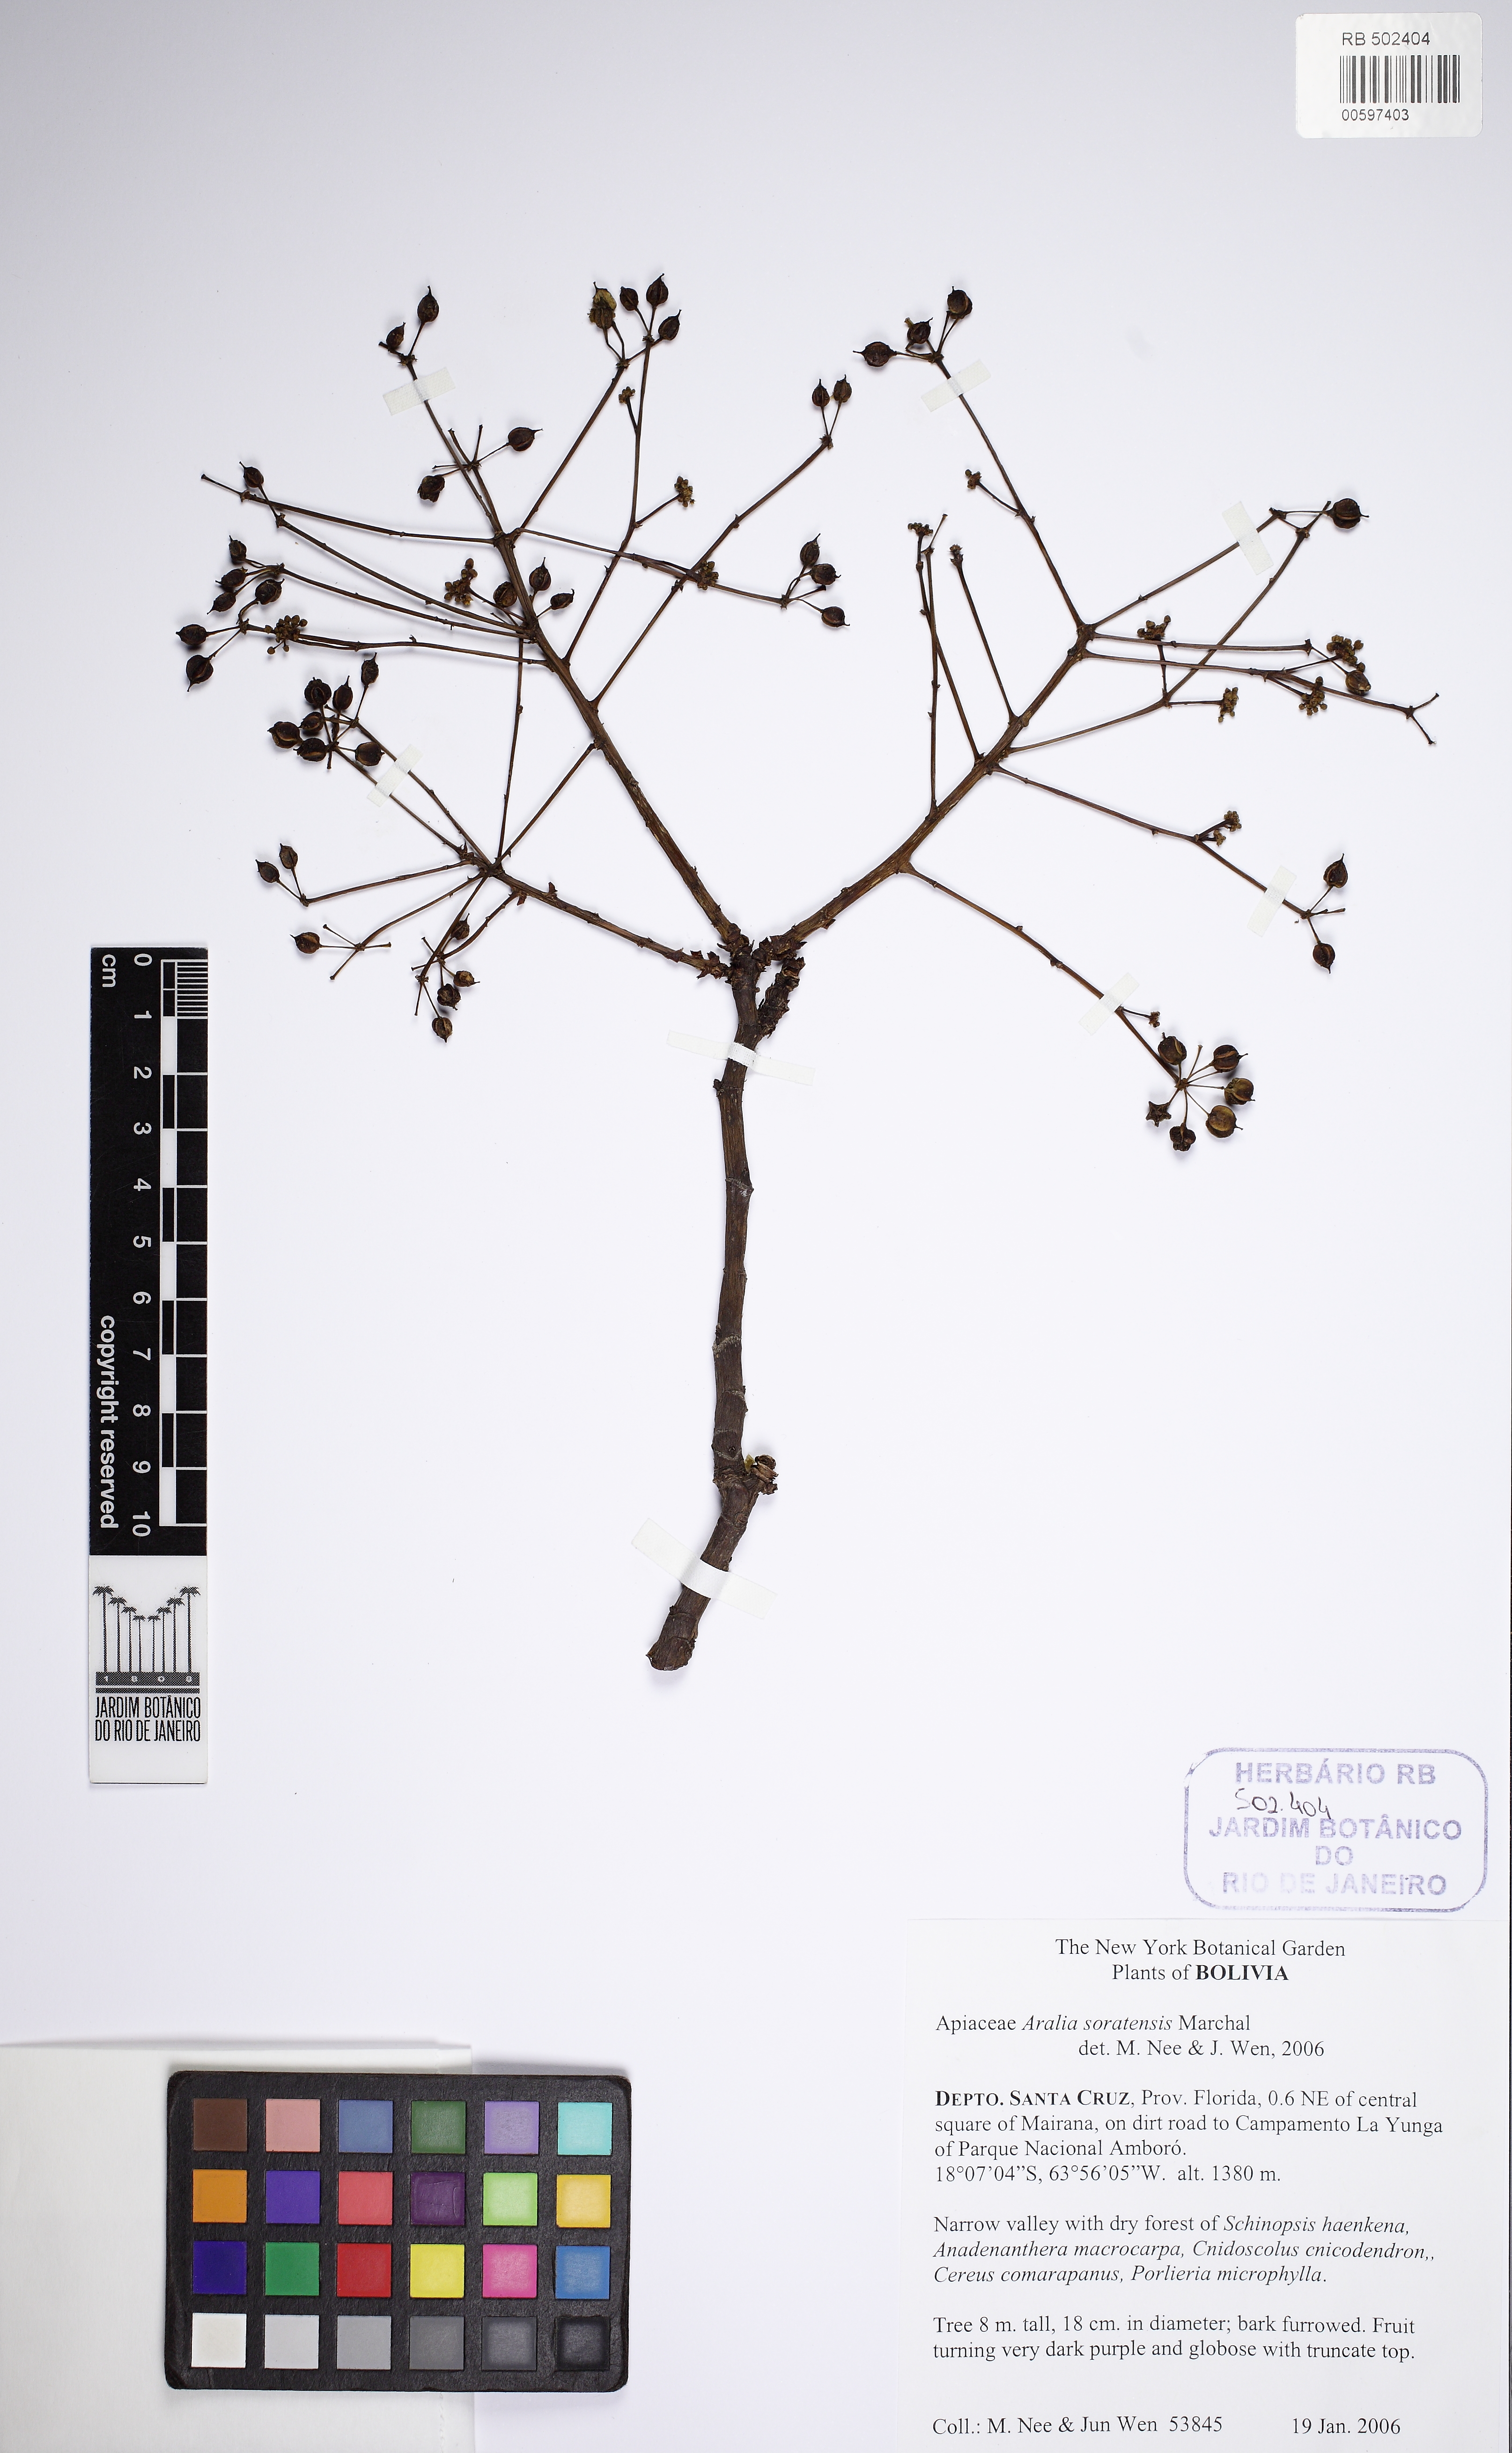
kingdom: Plantae
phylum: Tracheophyta
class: Magnoliopsida
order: Apiales
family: Araliaceae
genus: Aralia
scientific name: Aralia soratensis
